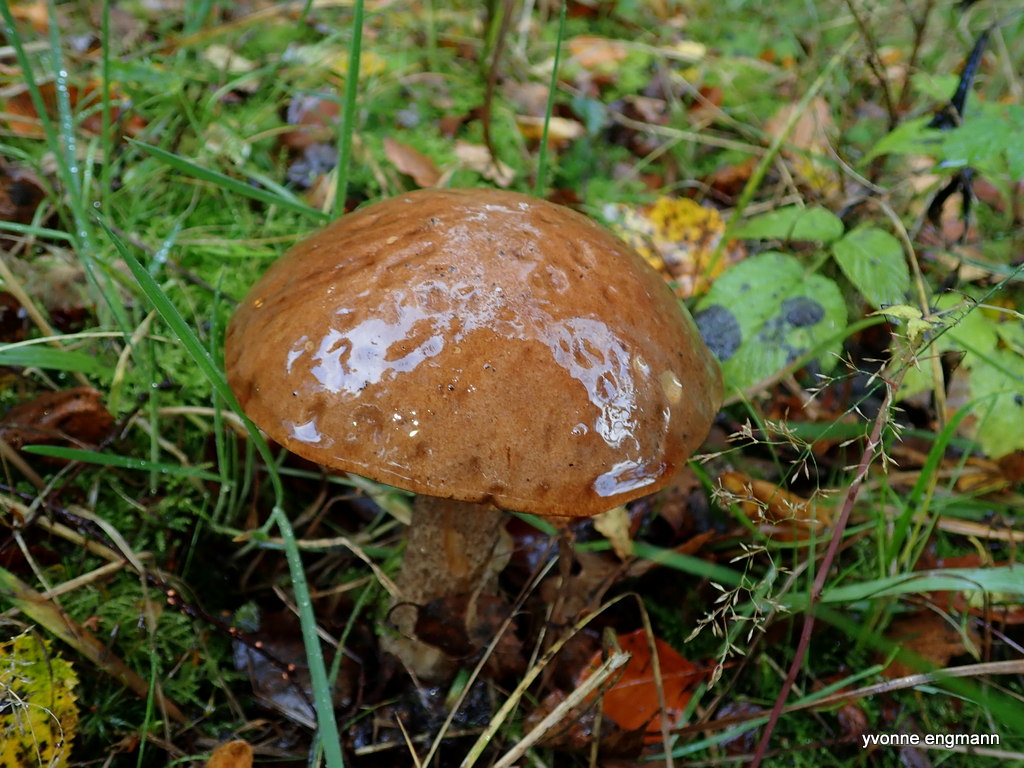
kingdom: Fungi
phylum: Basidiomycota
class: Agaricomycetes
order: Boletales
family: Boletaceae
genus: Leccinum
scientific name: Leccinum scabrum
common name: brun skælrørhat
